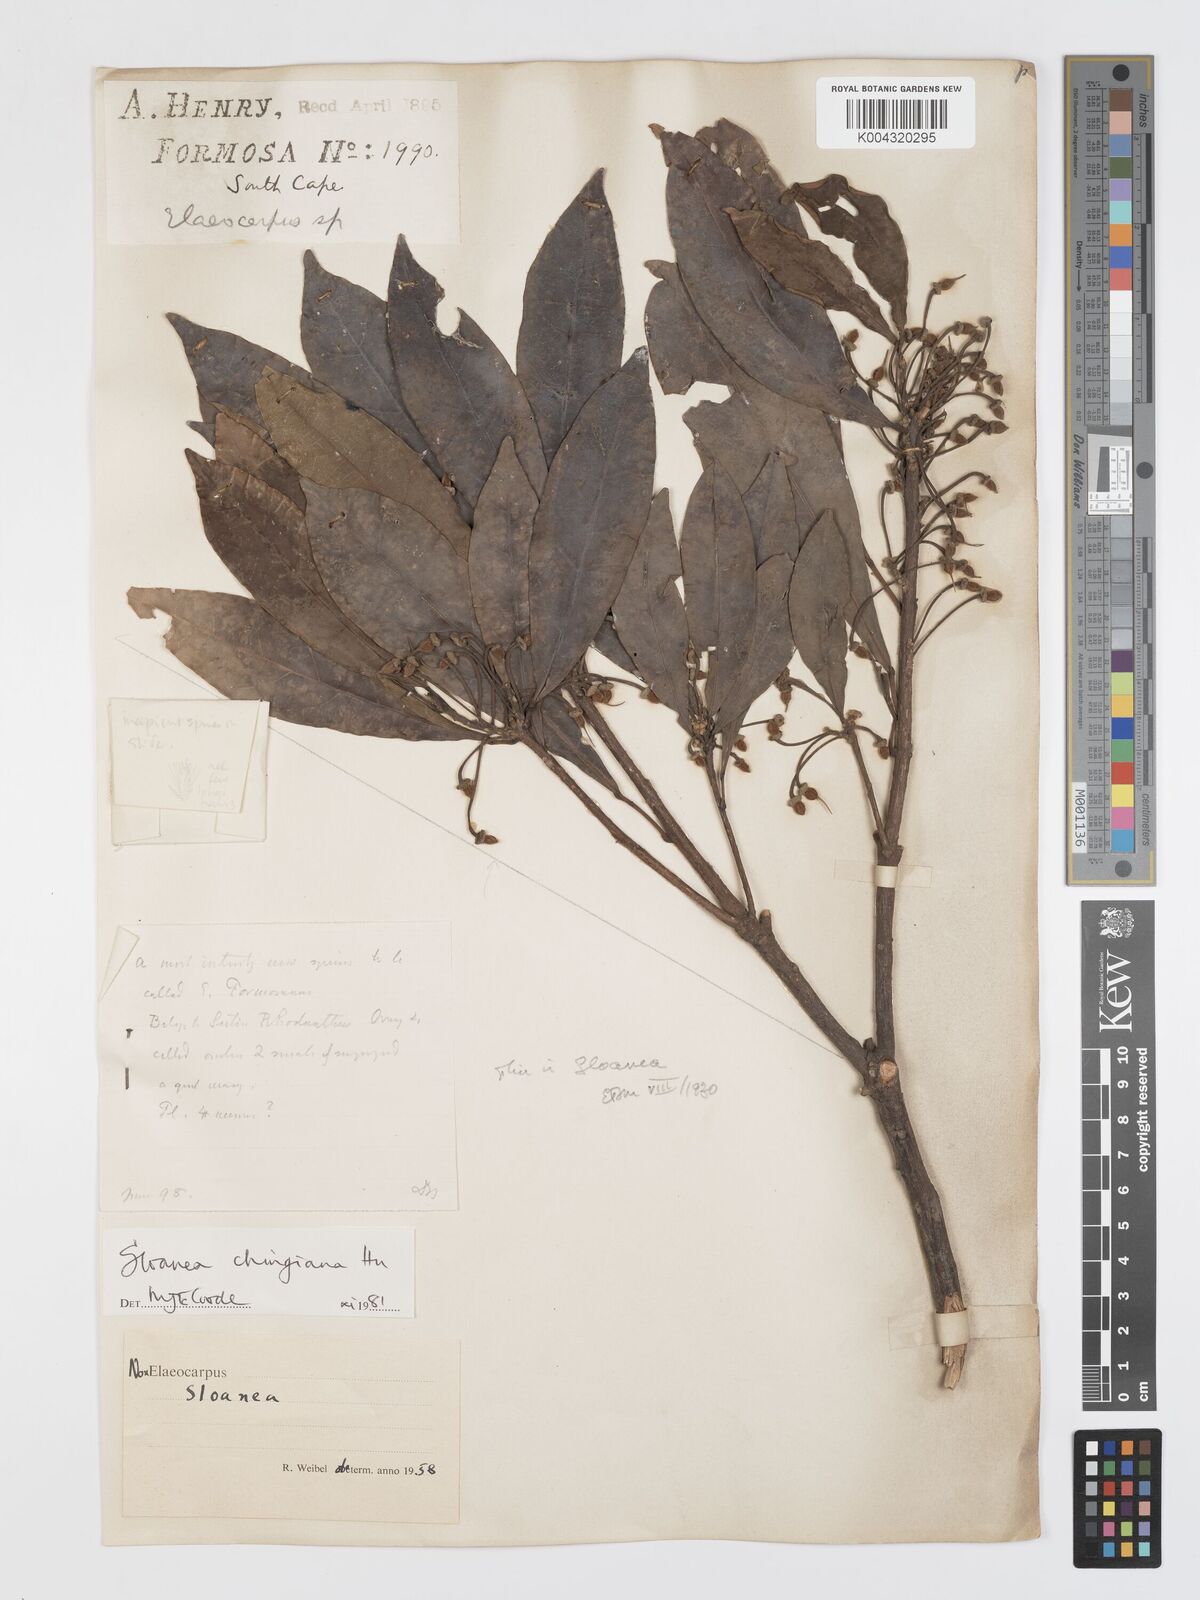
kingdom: Plantae
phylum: Tracheophyta
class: Magnoliopsida
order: Oxalidales
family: Elaeocarpaceae
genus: Sloanea
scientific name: Sloanea chingiana
